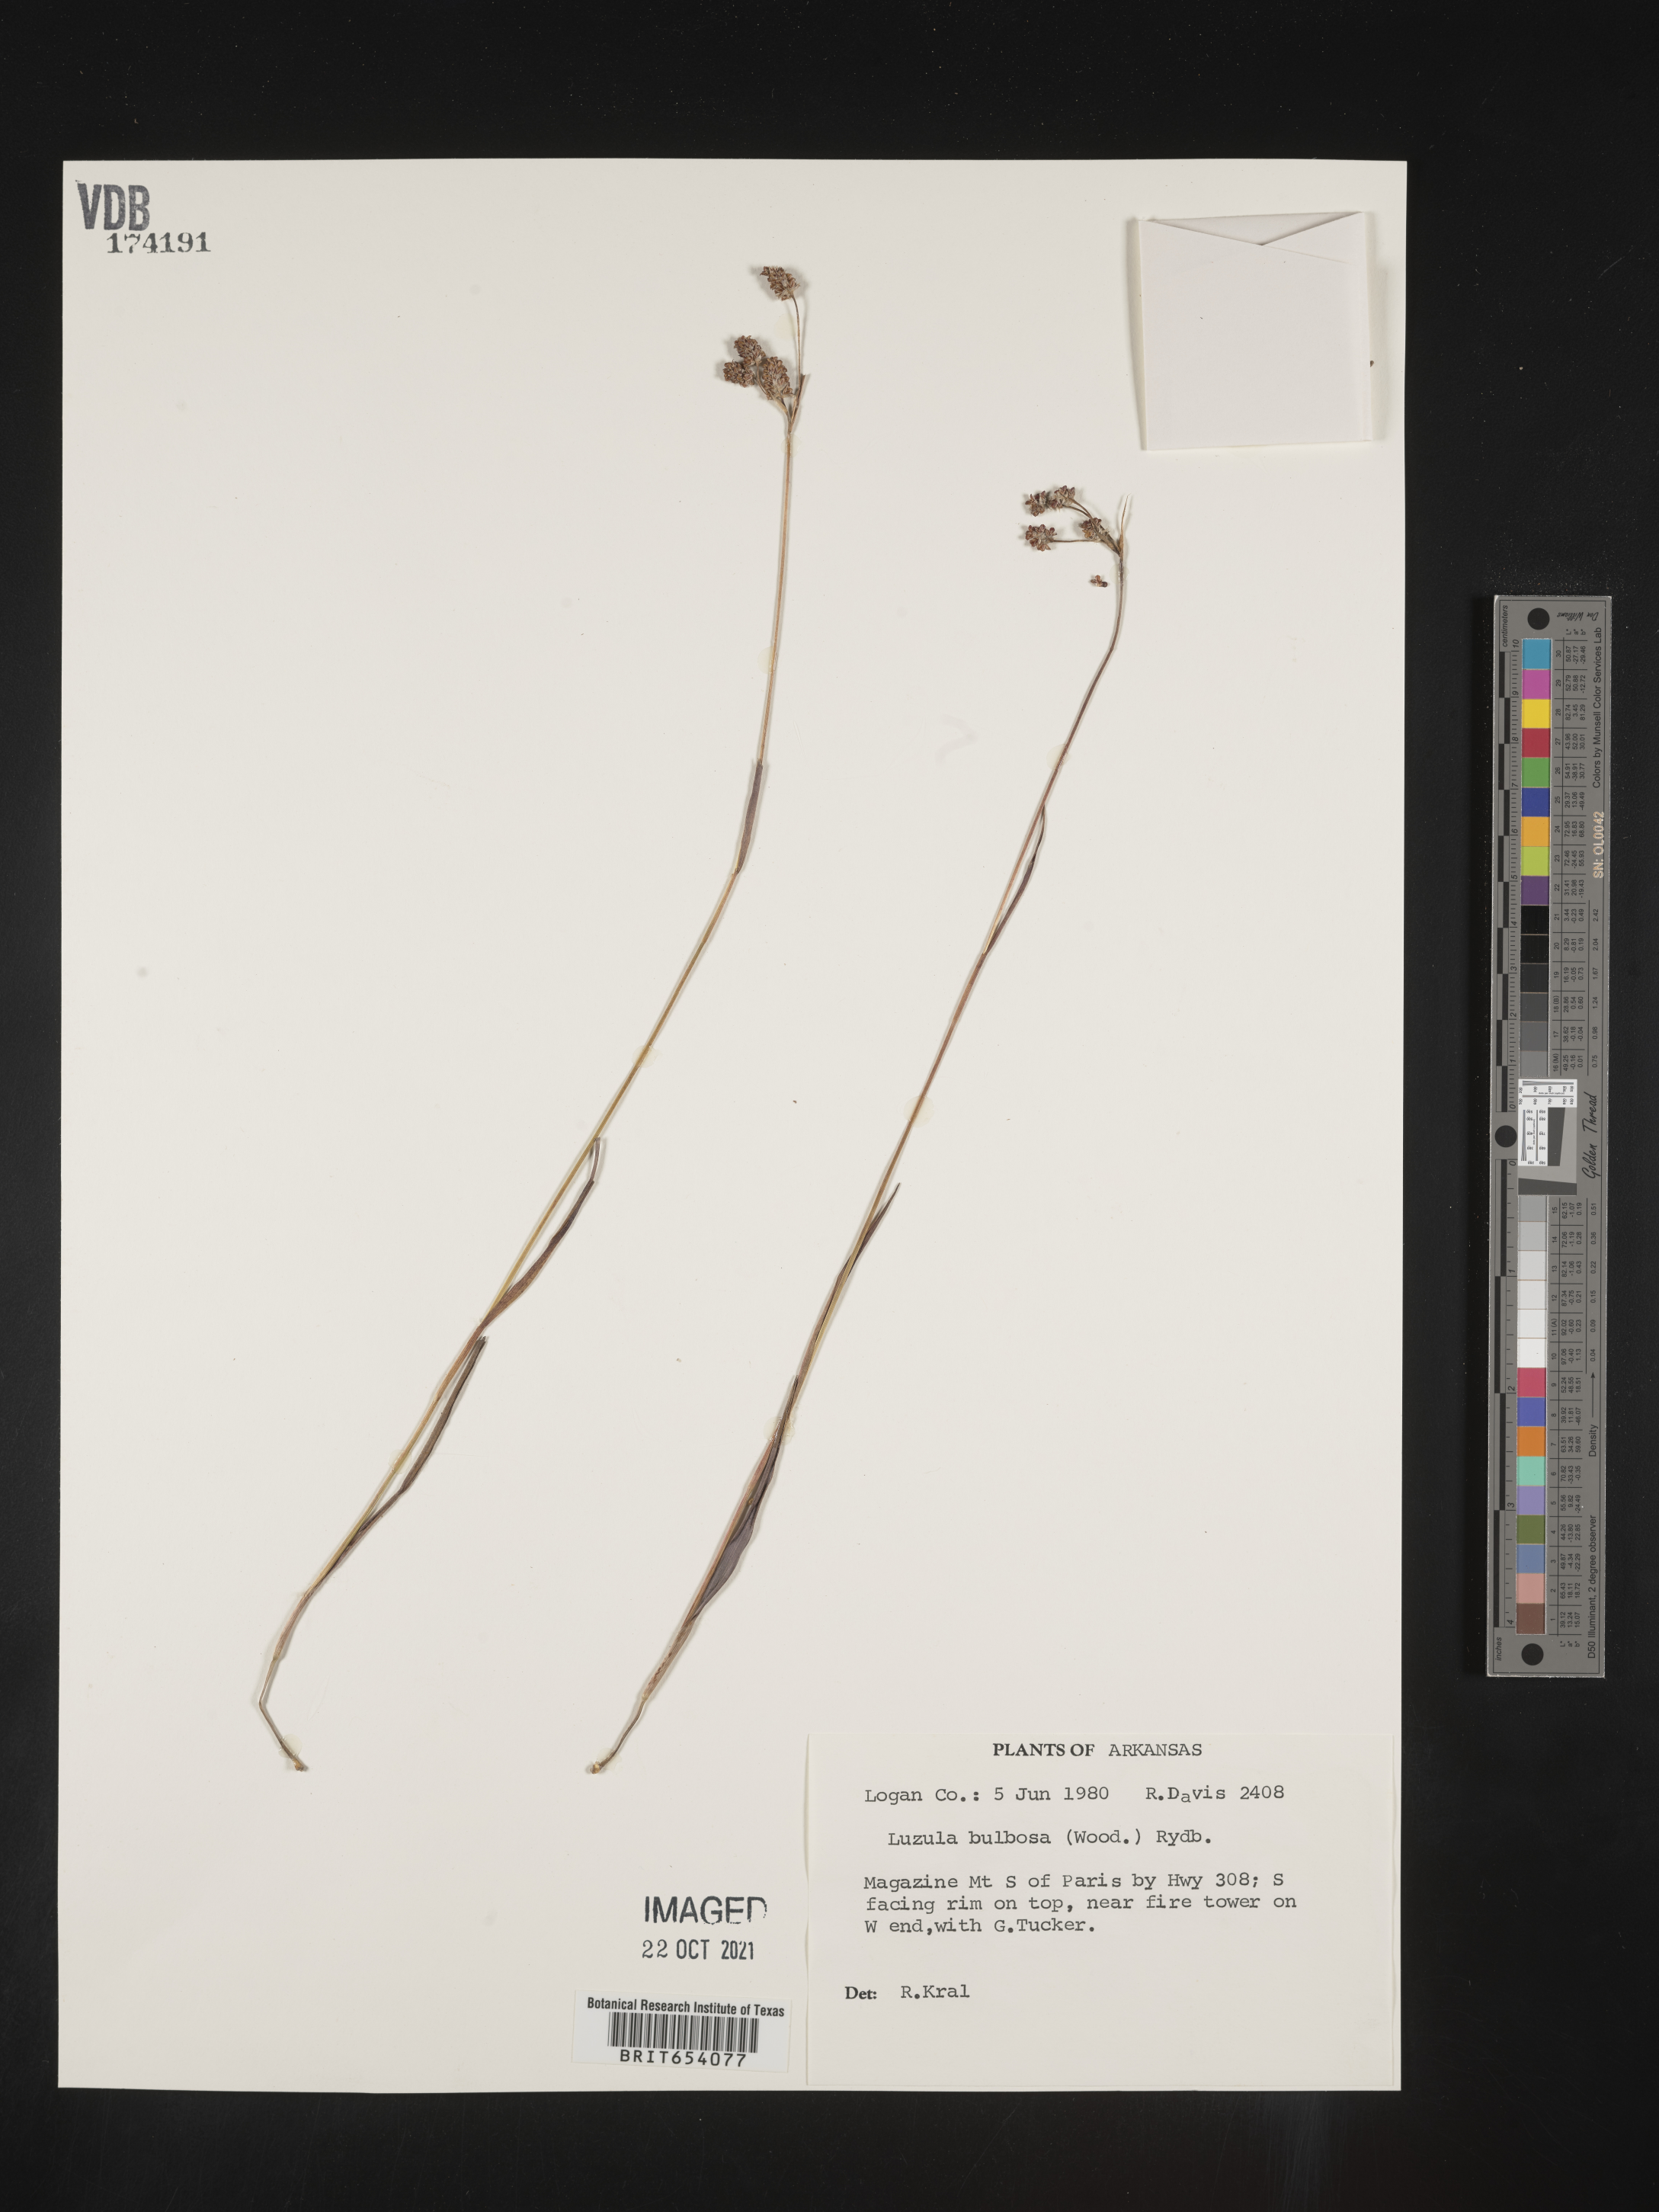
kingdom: Plantae
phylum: Tracheophyta
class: Liliopsida
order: Poales
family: Juncaceae
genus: Luzula
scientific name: Luzula bulbosa
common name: Bulbous woodrush
